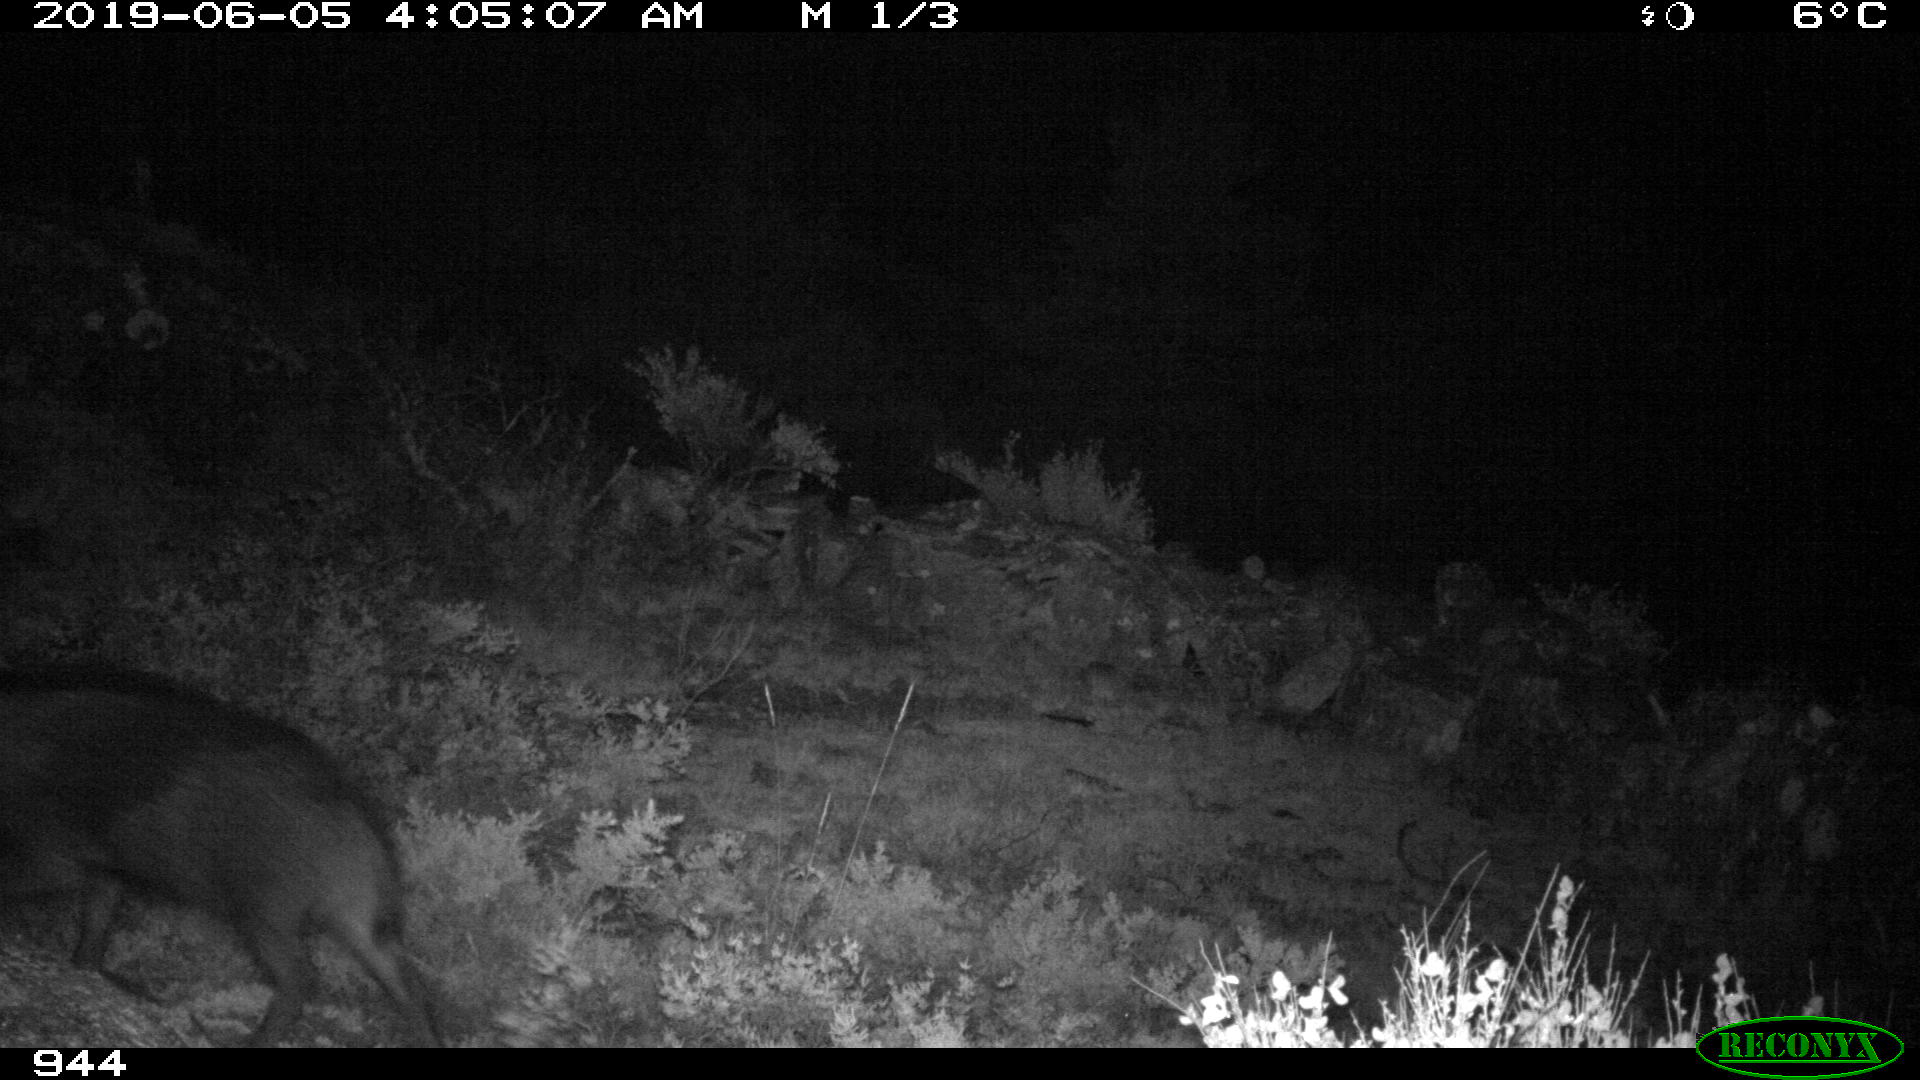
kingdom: Animalia
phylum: Chordata
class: Mammalia
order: Artiodactyla
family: Suidae
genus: Sus
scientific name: Sus scrofa
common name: Wild boar
